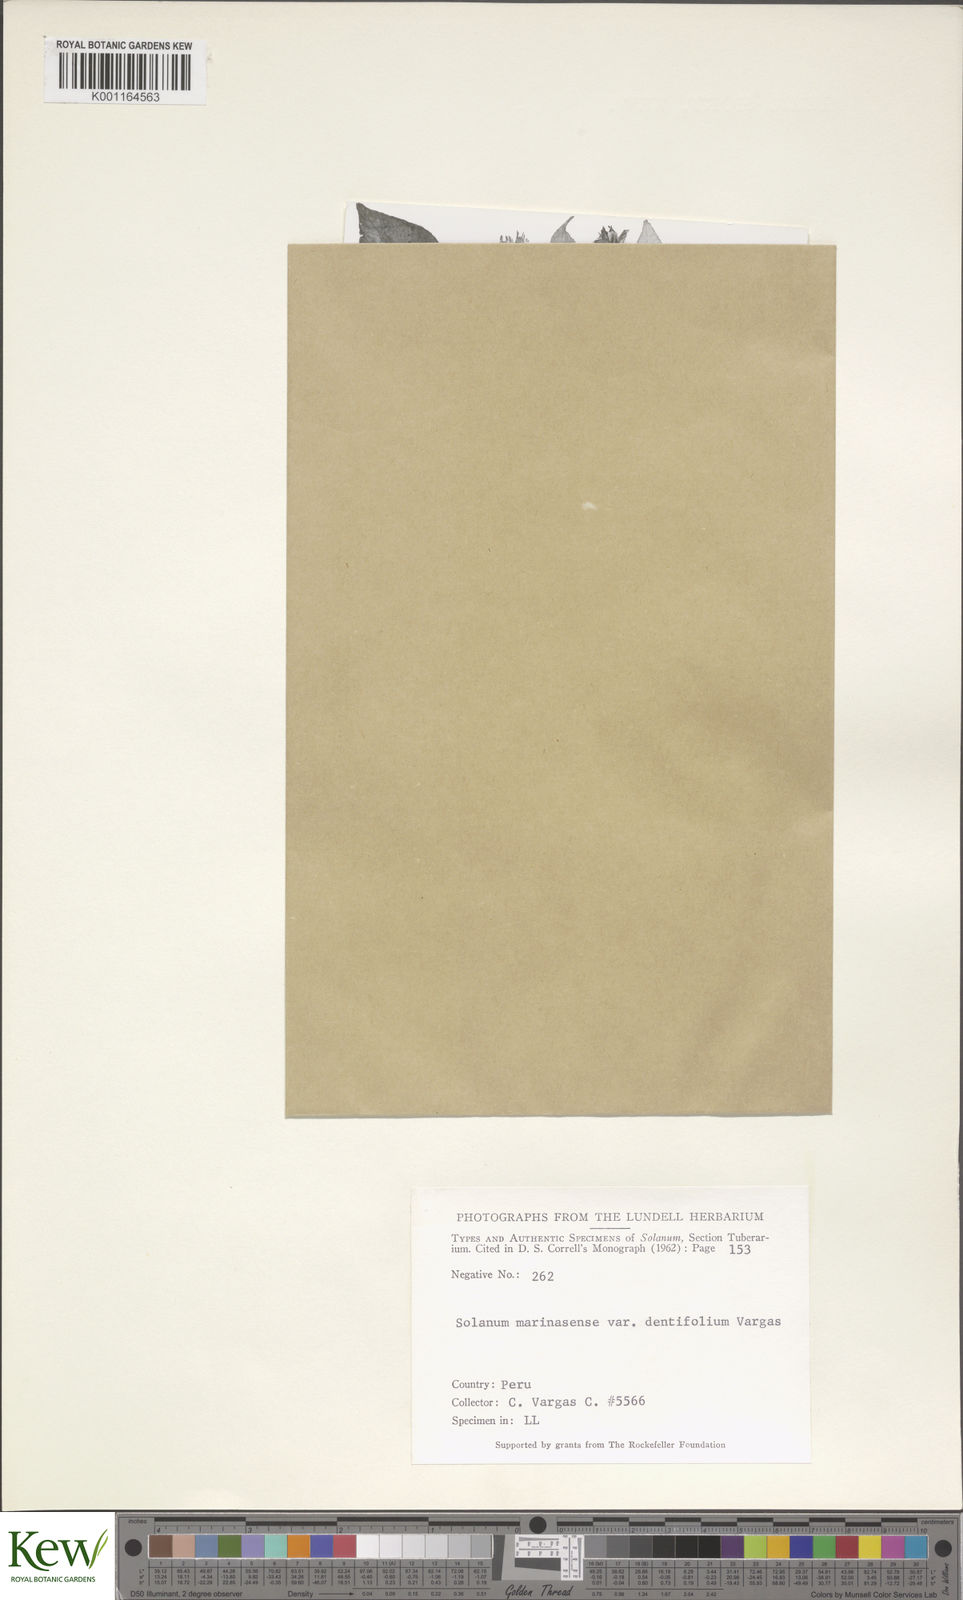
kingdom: Plantae
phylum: Tracheophyta
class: Magnoliopsida
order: Solanales
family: Solanaceae
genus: Solanum
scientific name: Solanum candolleanum
